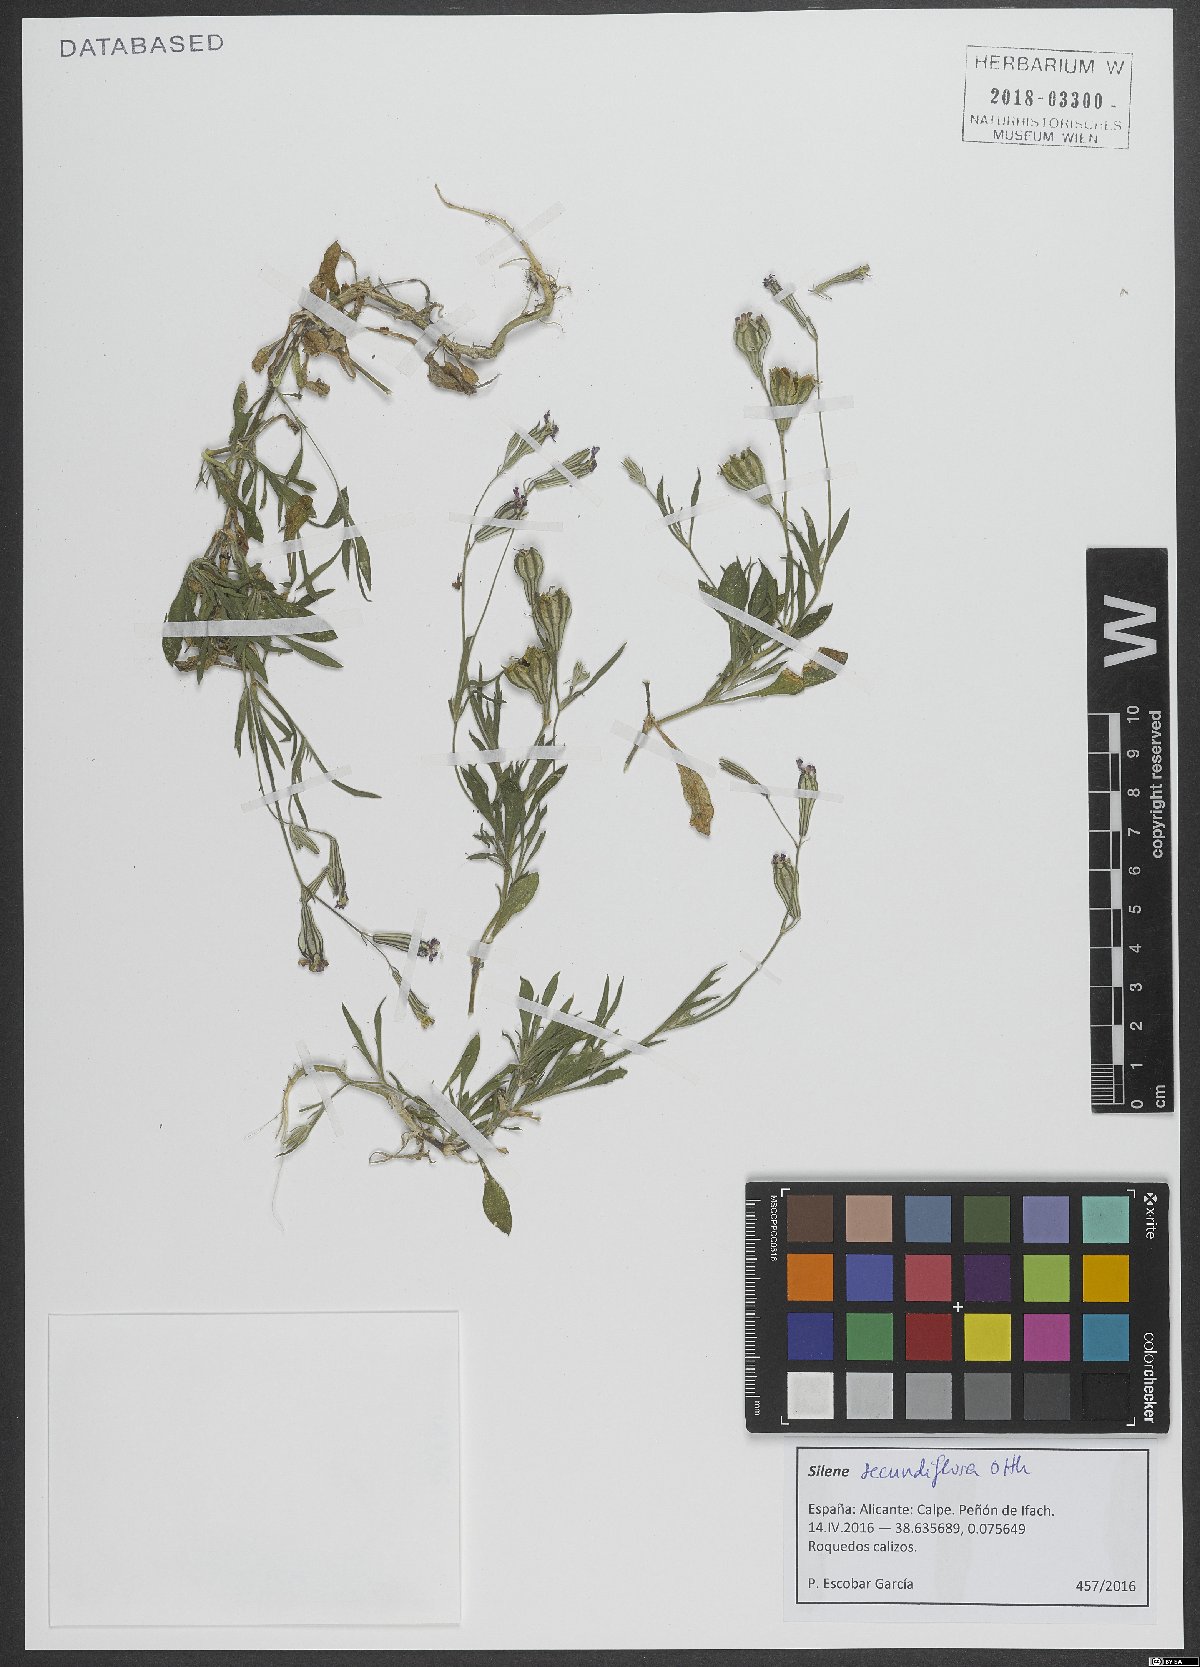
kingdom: Plantae
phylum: Tracheophyta
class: Magnoliopsida
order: Caryophyllales
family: Caryophyllaceae
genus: Silene
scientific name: Silene secundiflora
